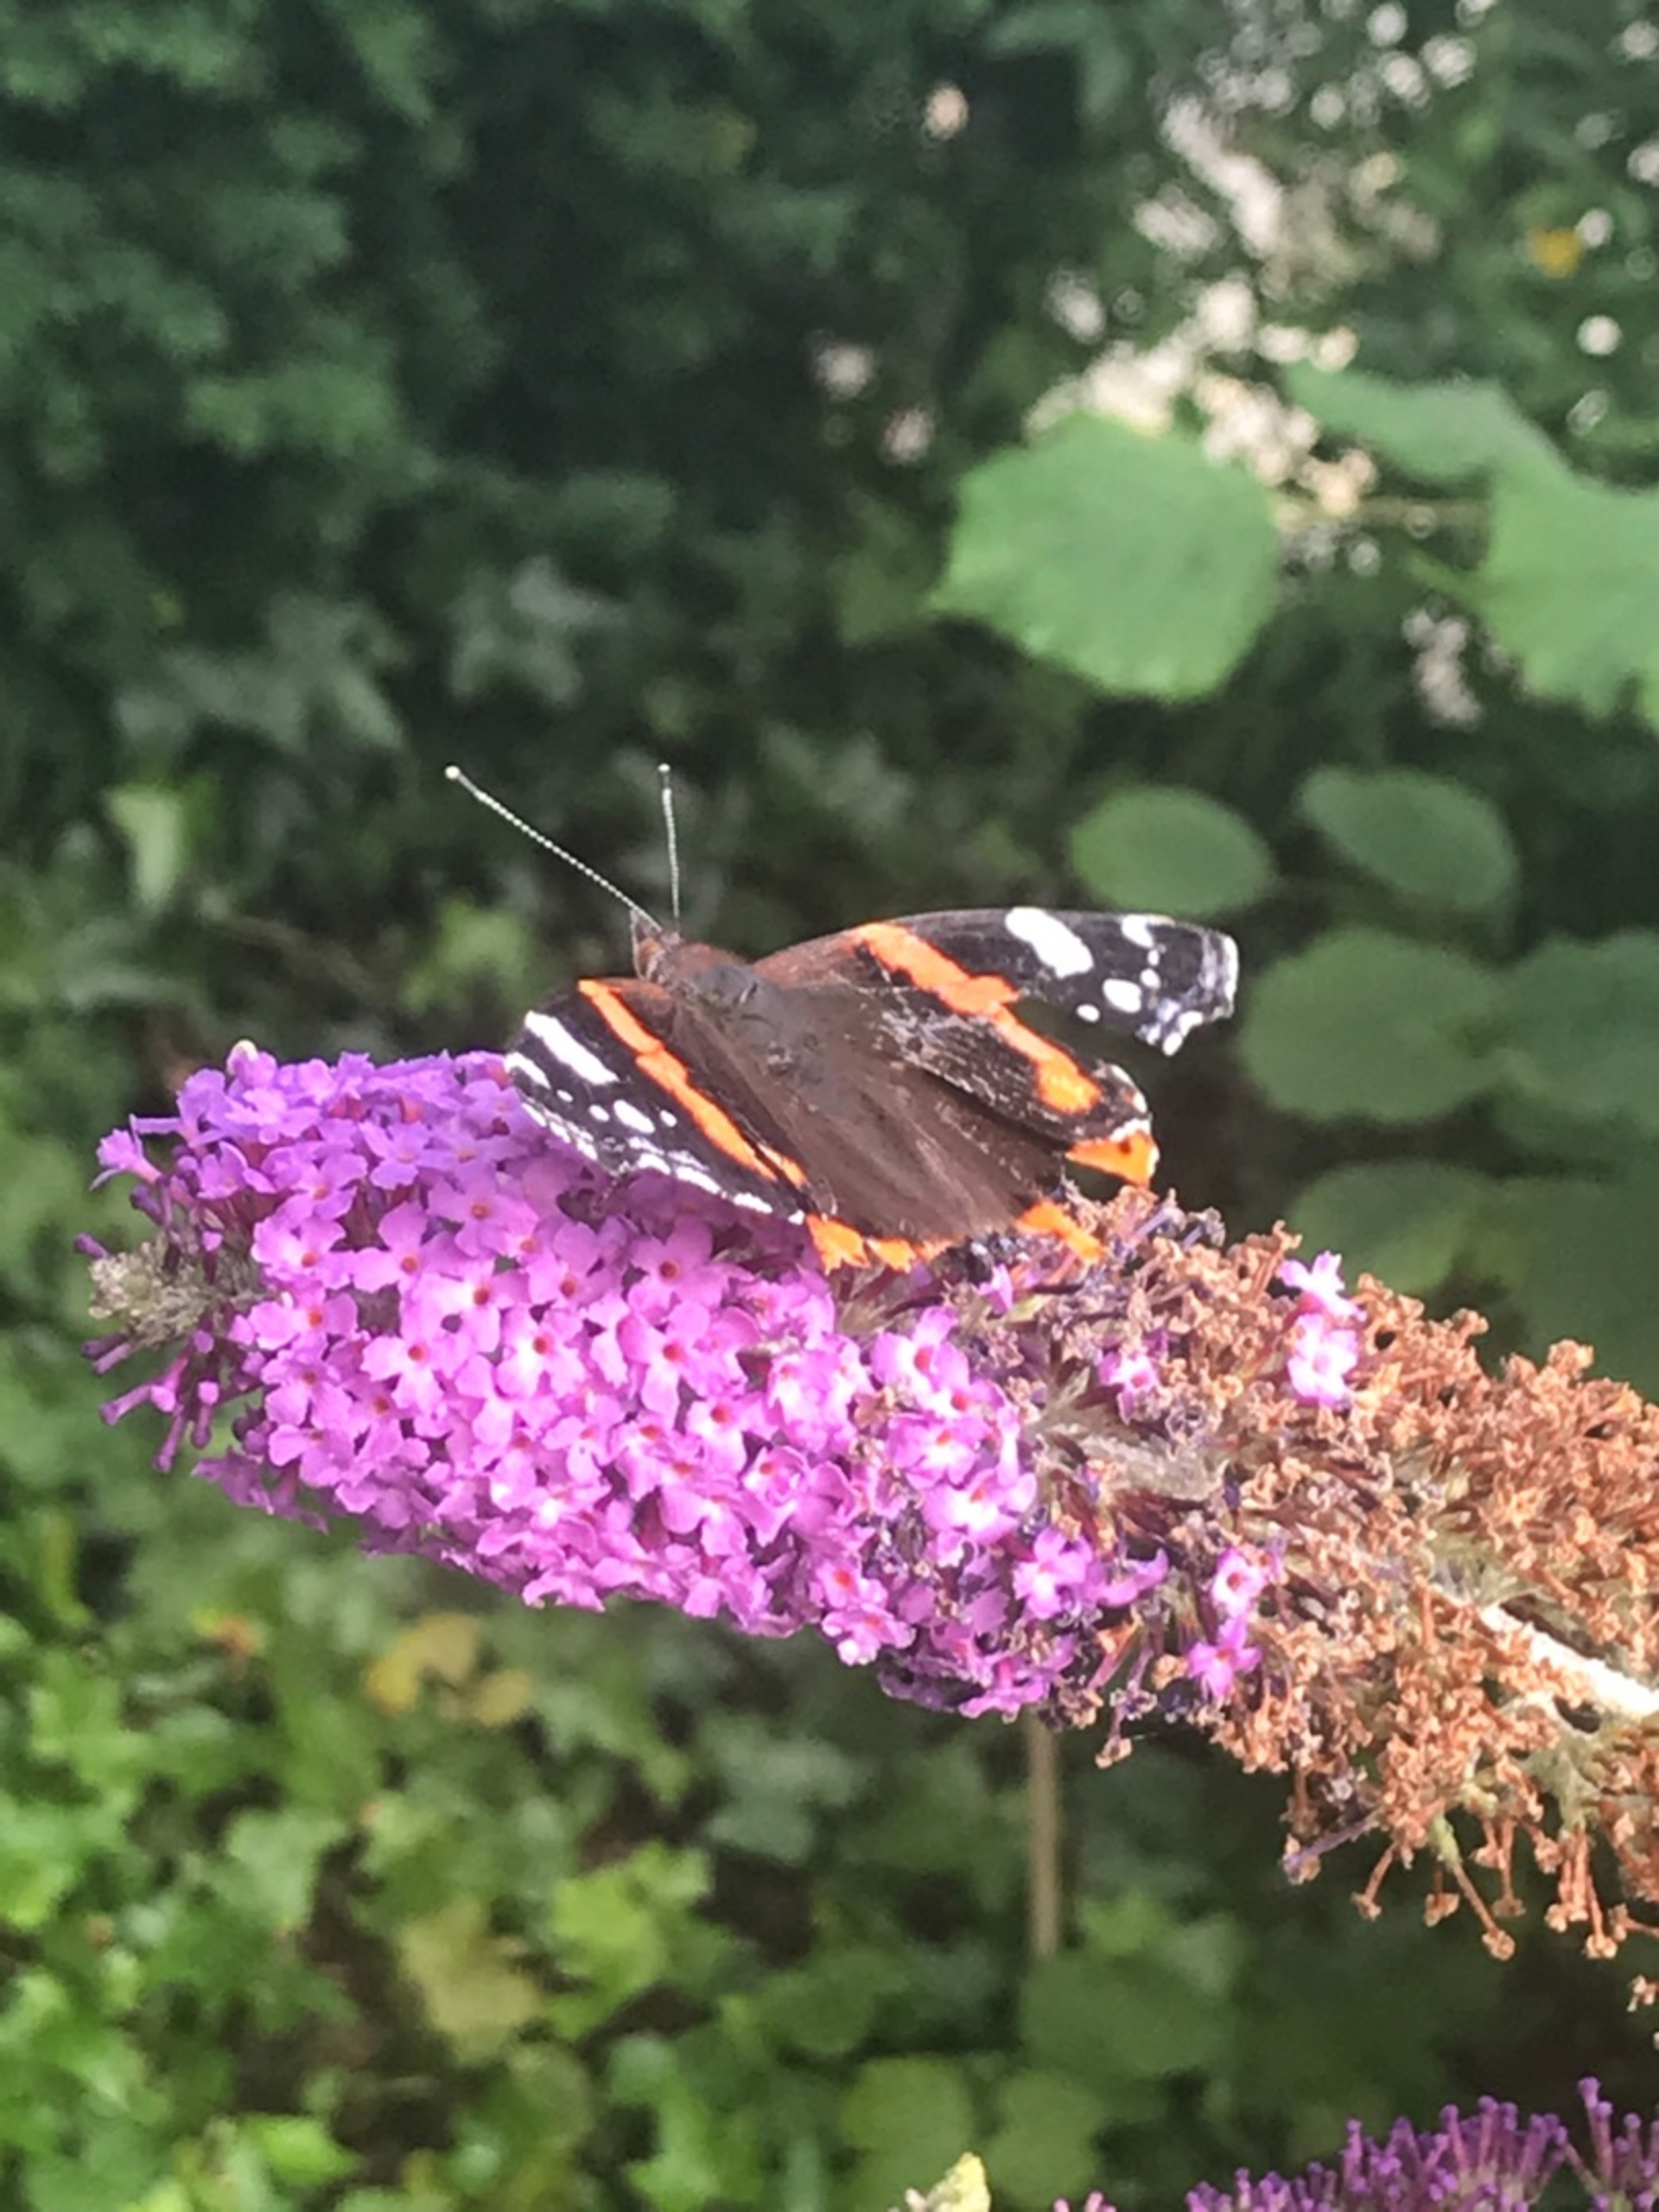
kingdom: Animalia
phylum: Arthropoda
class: Insecta
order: Lepidoptera
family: Nymphalidae
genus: Vanessa
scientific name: Vanessa atalanta
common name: Admiral
